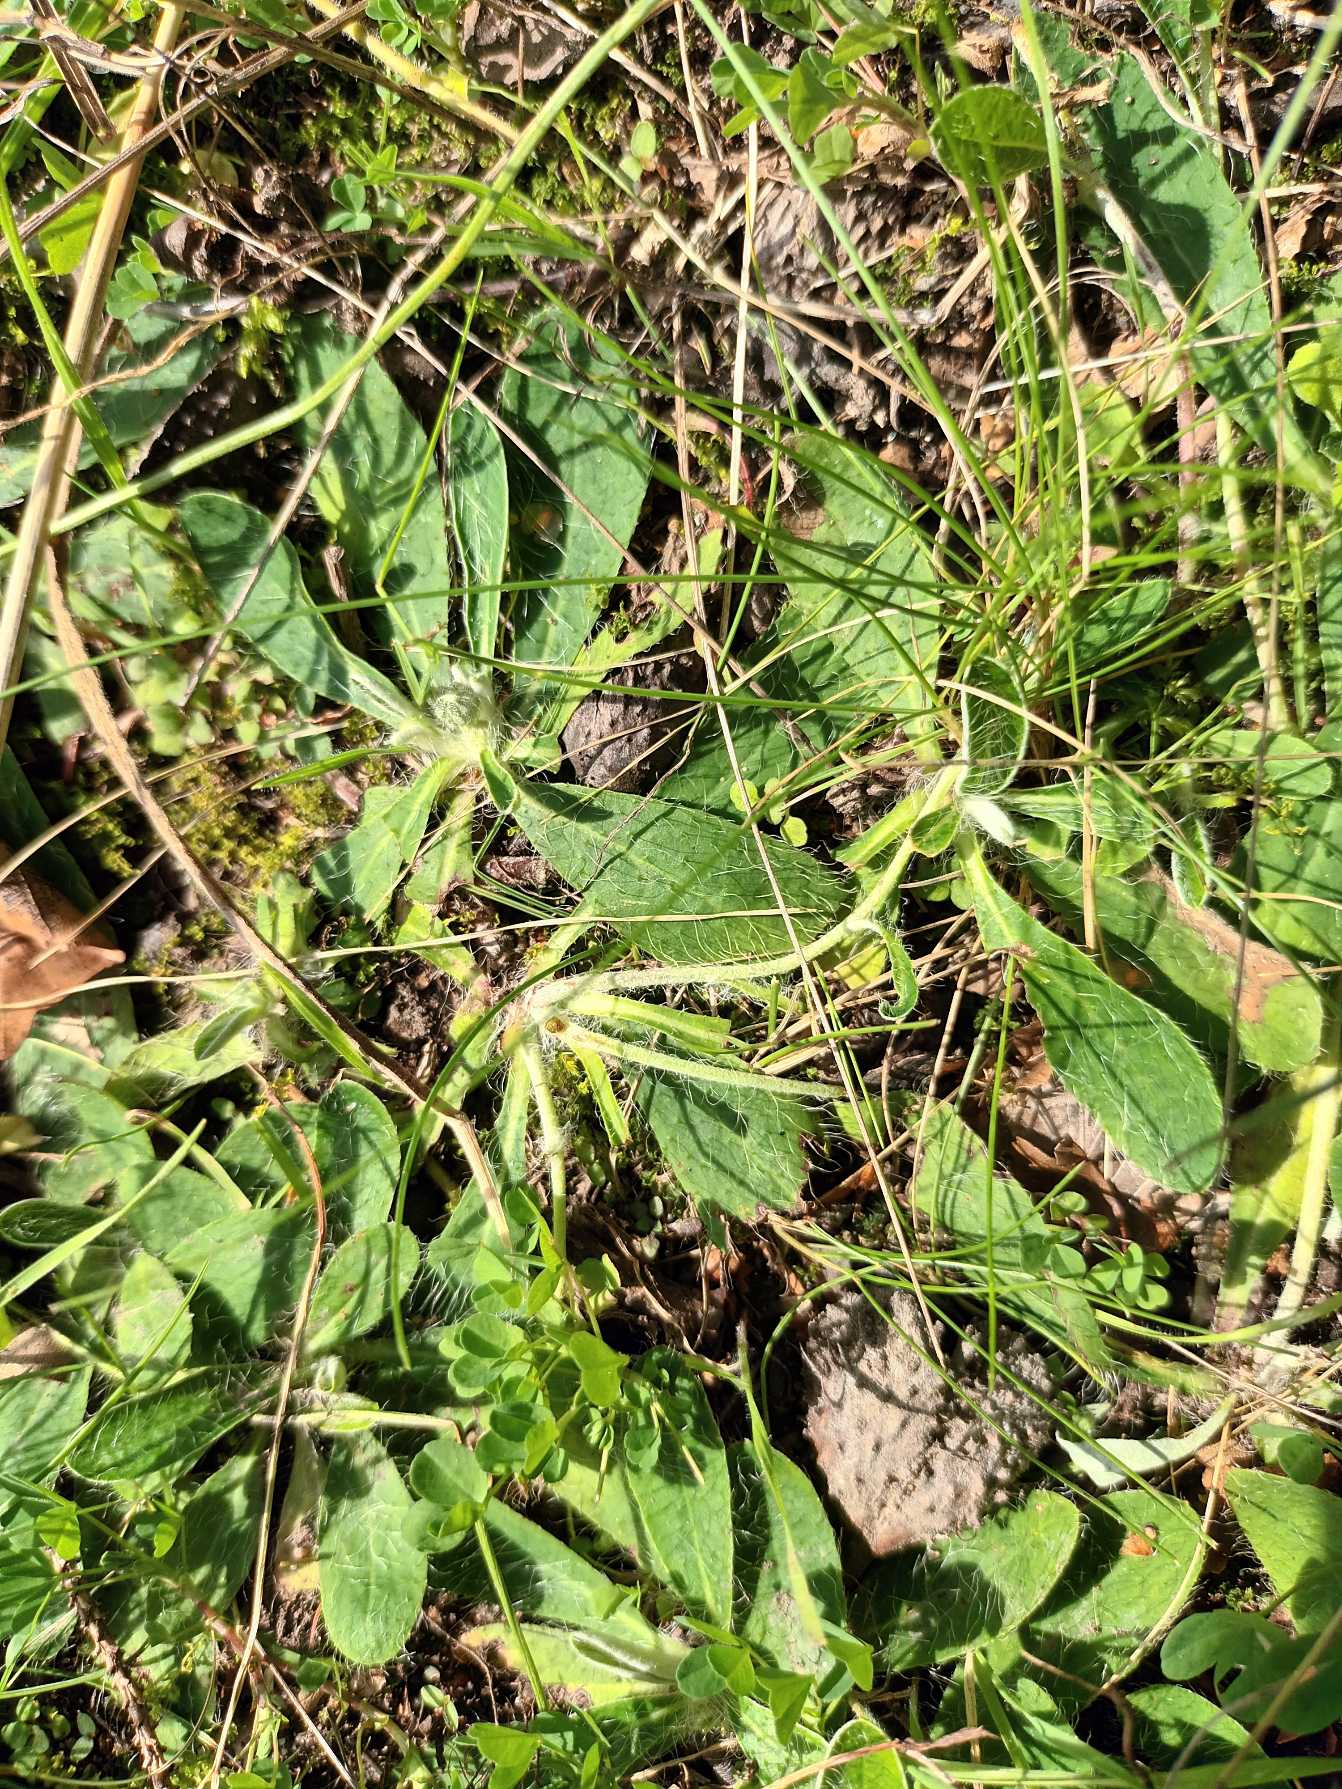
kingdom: Plantae
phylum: Tracheophyta
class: Magnoliopsida
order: Asterales
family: Asteraceae
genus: Pilosella
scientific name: Pilosella officinarum
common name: Håret høgeurt
